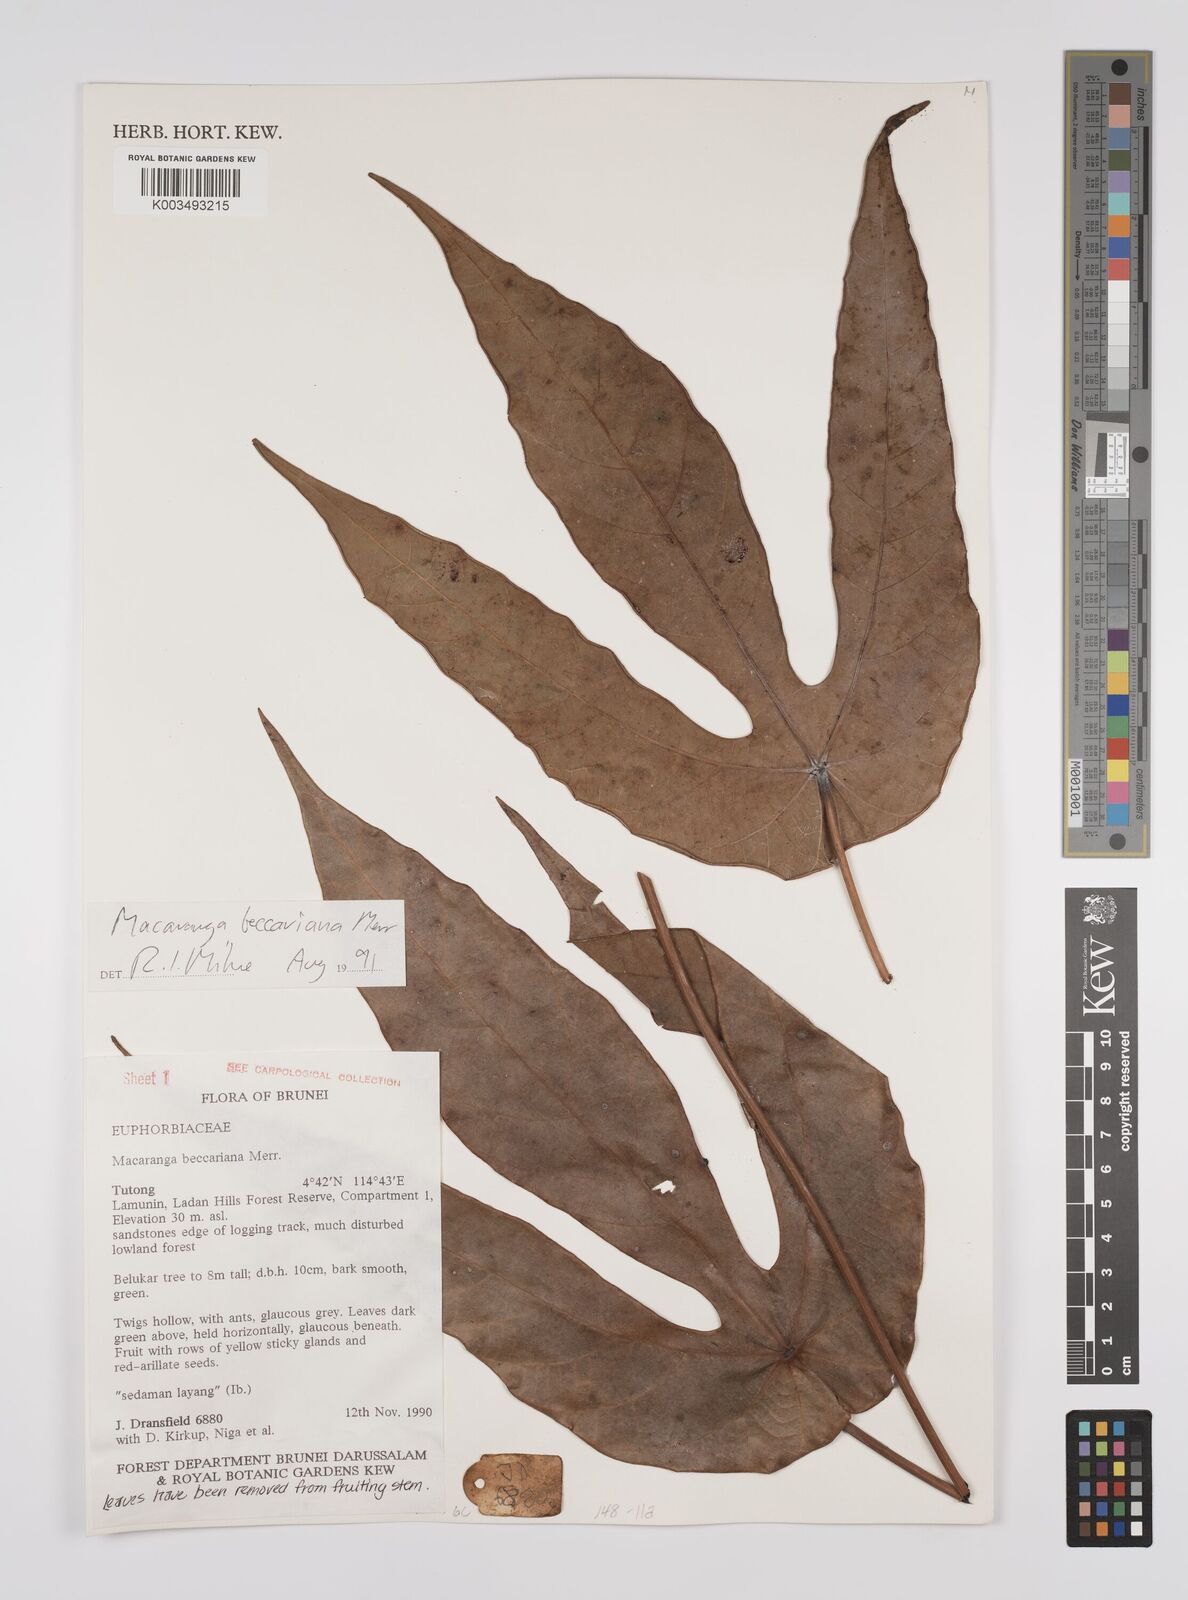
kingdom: Plantae
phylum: Tracheophyta
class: Magnoliopsida
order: Malpighiales
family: Euphorbiaceae
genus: Macaranga
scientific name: Macaranga beccariana
